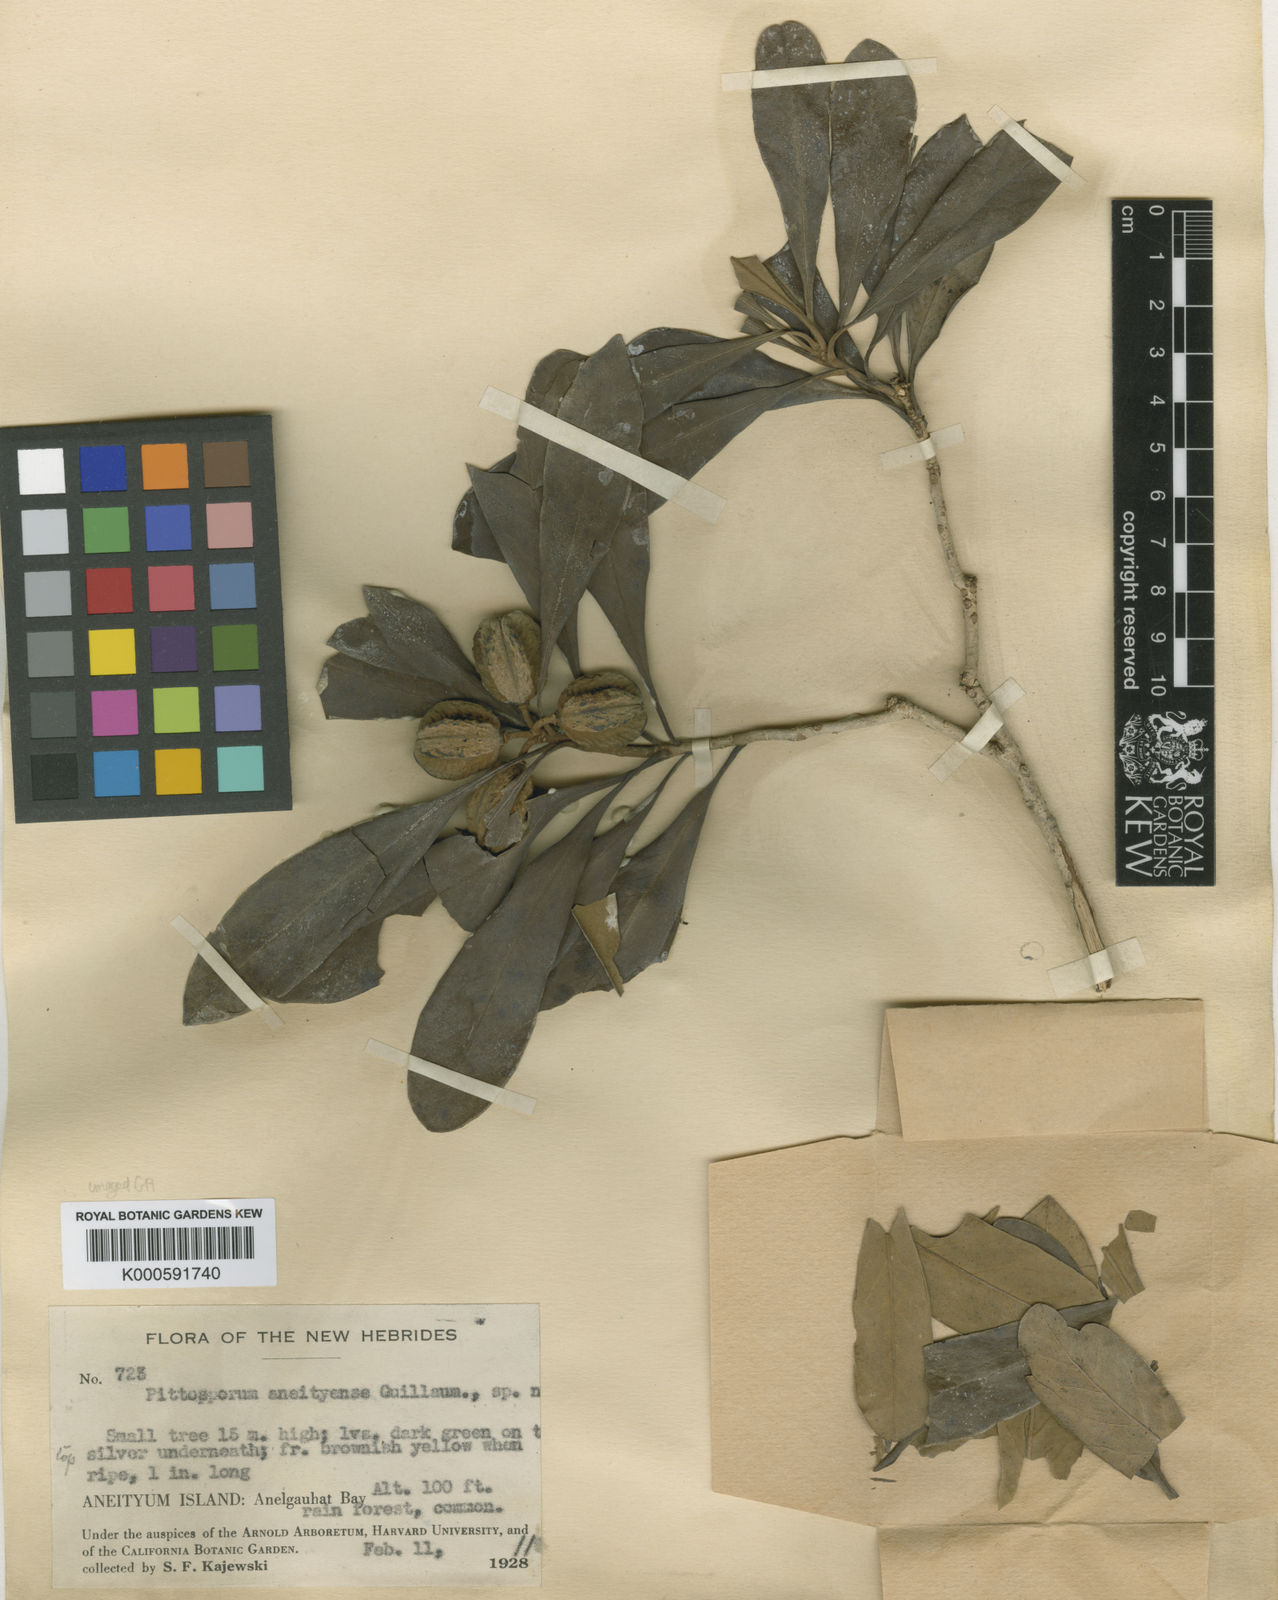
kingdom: Plantae
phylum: Tracheophyta
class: Magnoliopsida
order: Apiales
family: Pittosporaceae
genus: Pittosporum
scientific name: Pittosporum aneityense
